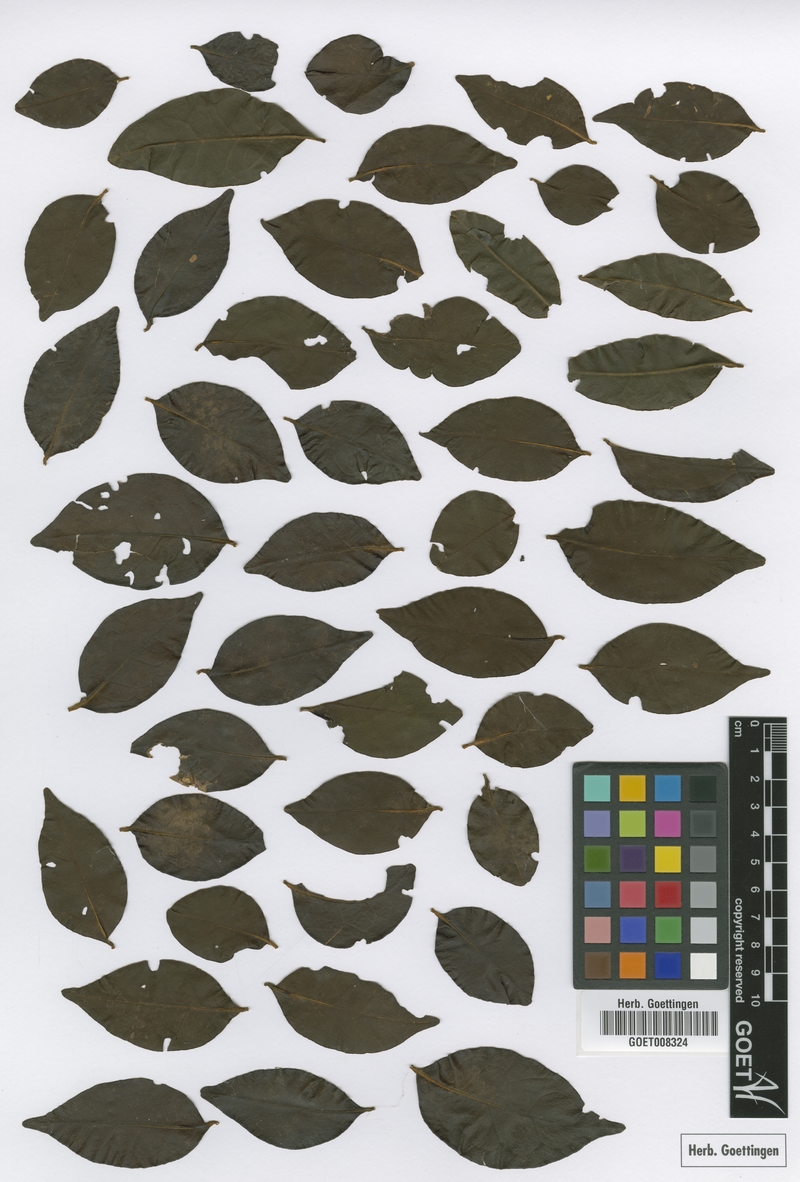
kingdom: Plantae
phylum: Tracheophyta
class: Magnoliopsida
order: Santalales
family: Olacaceae
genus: Dulacia
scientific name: Dulacia inopiflora
